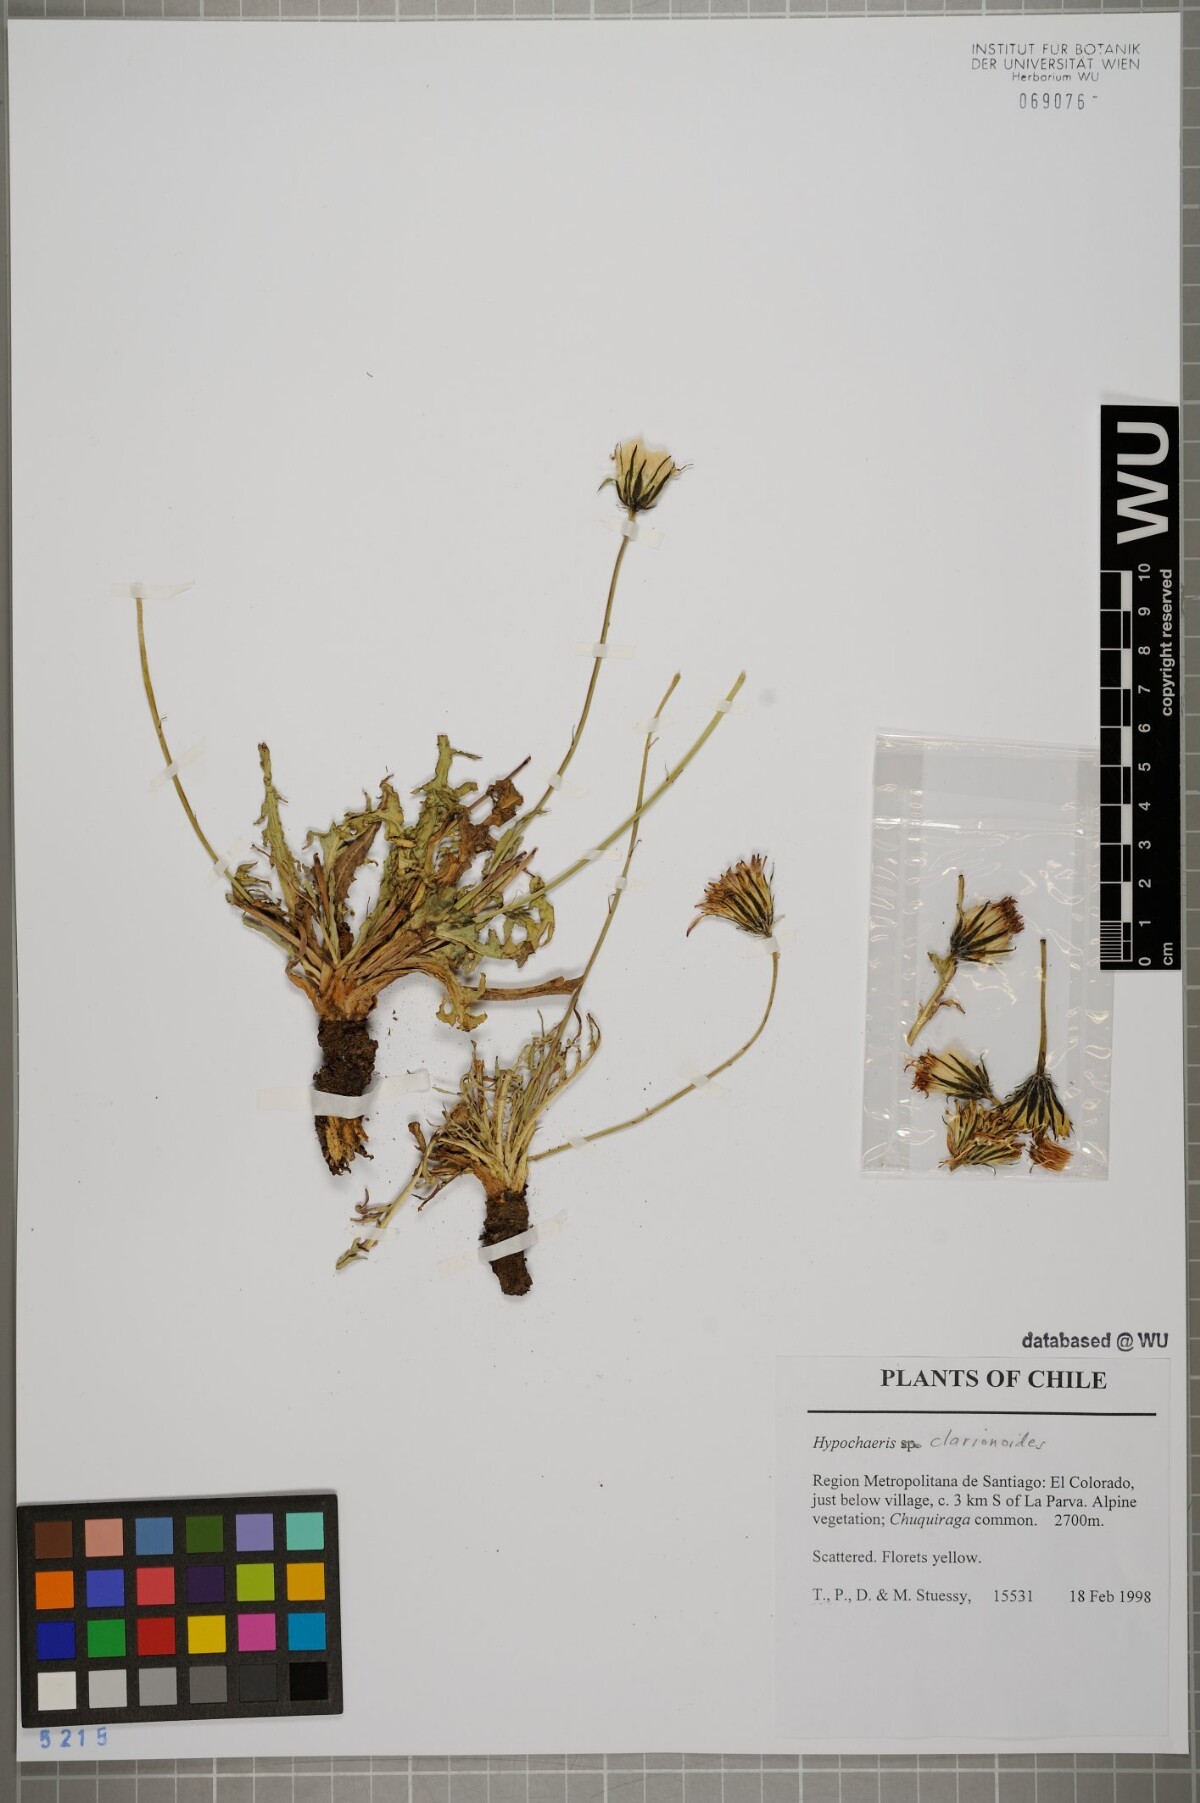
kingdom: Plantae
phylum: Tracheophyta
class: Magnoliopsida
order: Asterales
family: Asteraceae
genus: Hypochaeris
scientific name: Hypochaeris clarionoides
